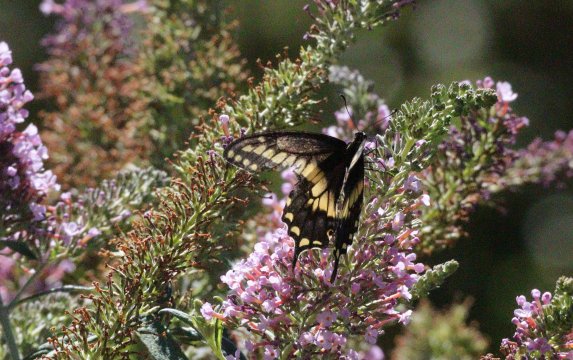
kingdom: Animalia
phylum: Arthropoda
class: Insecta
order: Lepidoptera
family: Papilionidae
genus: Papilio
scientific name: Papilio polyxenes
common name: Black Swallowtail
